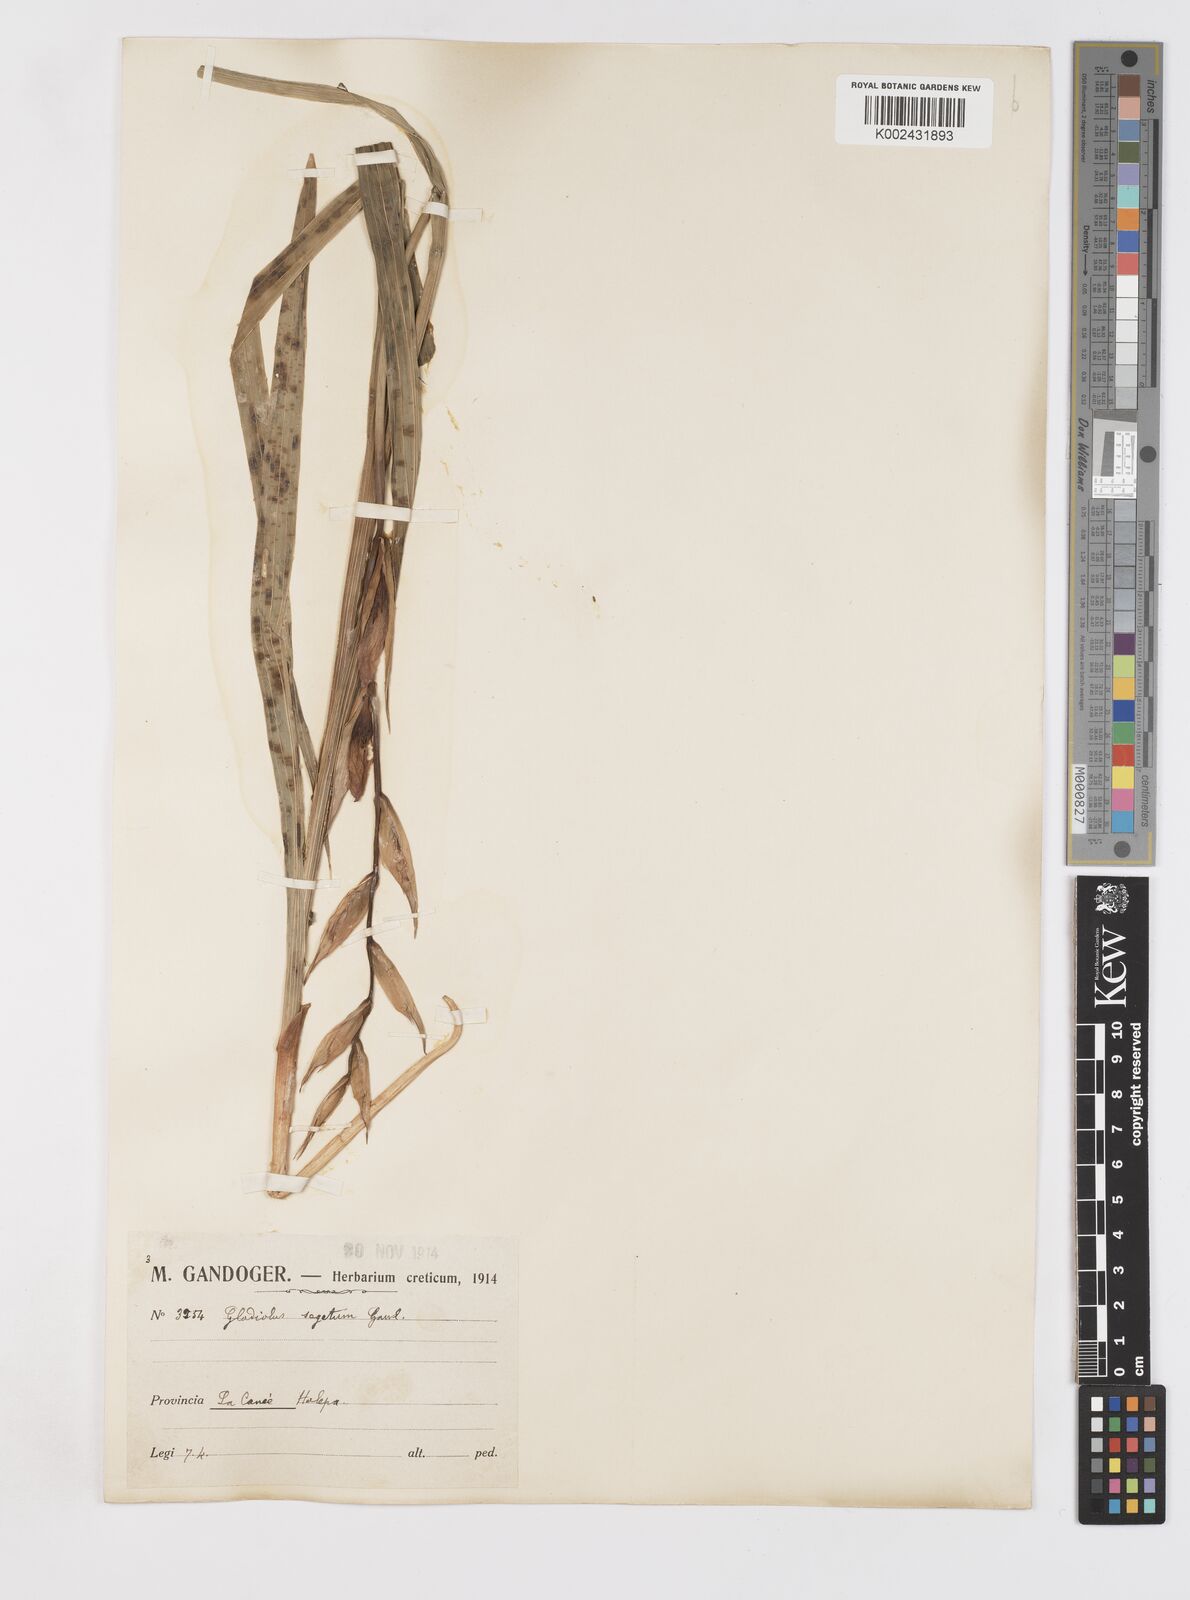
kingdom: Plantae
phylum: Tracheophyta
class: Liliopsida
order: Asparagales
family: Iridaceae
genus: Gladiolus
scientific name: Gladiolus italicus
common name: Field gladiolus
